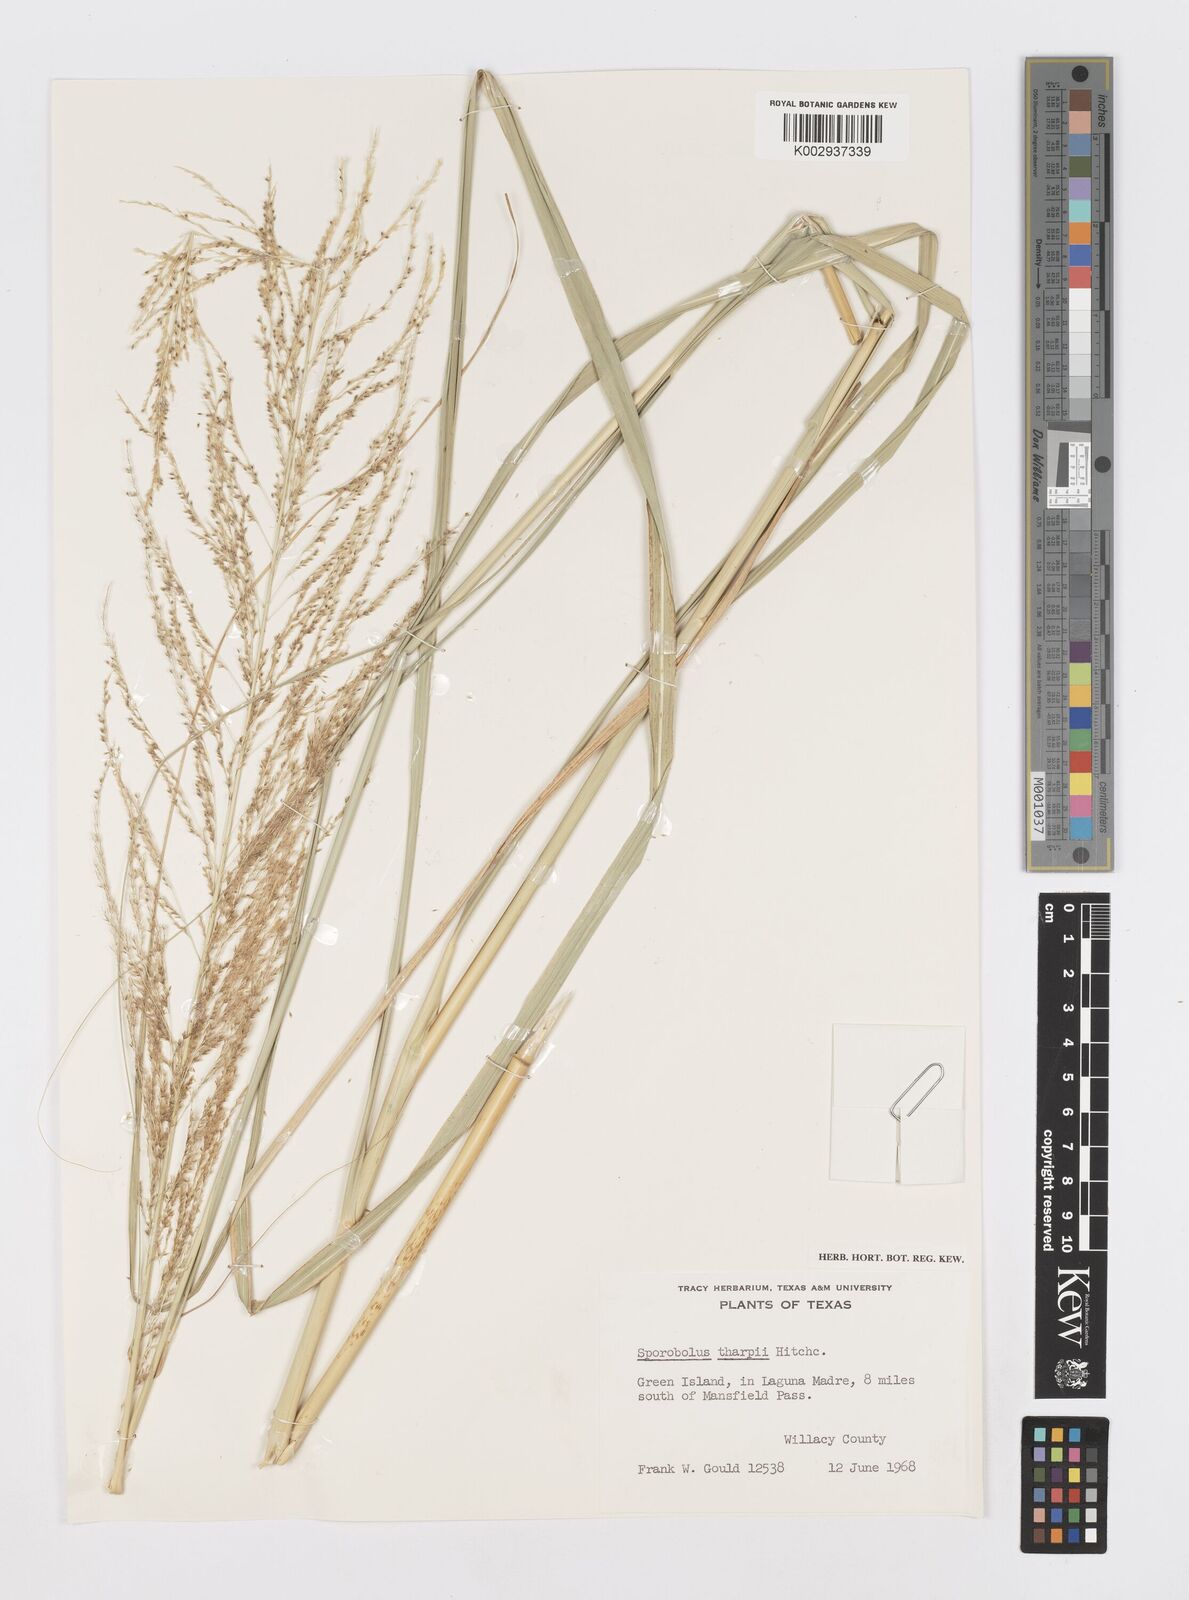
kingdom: Plantae
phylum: Tracheophyta
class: Liliopsida
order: Poales
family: Poaceae
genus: Sporobolus
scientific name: Sporobolus airoides
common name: Alkali sacaton
